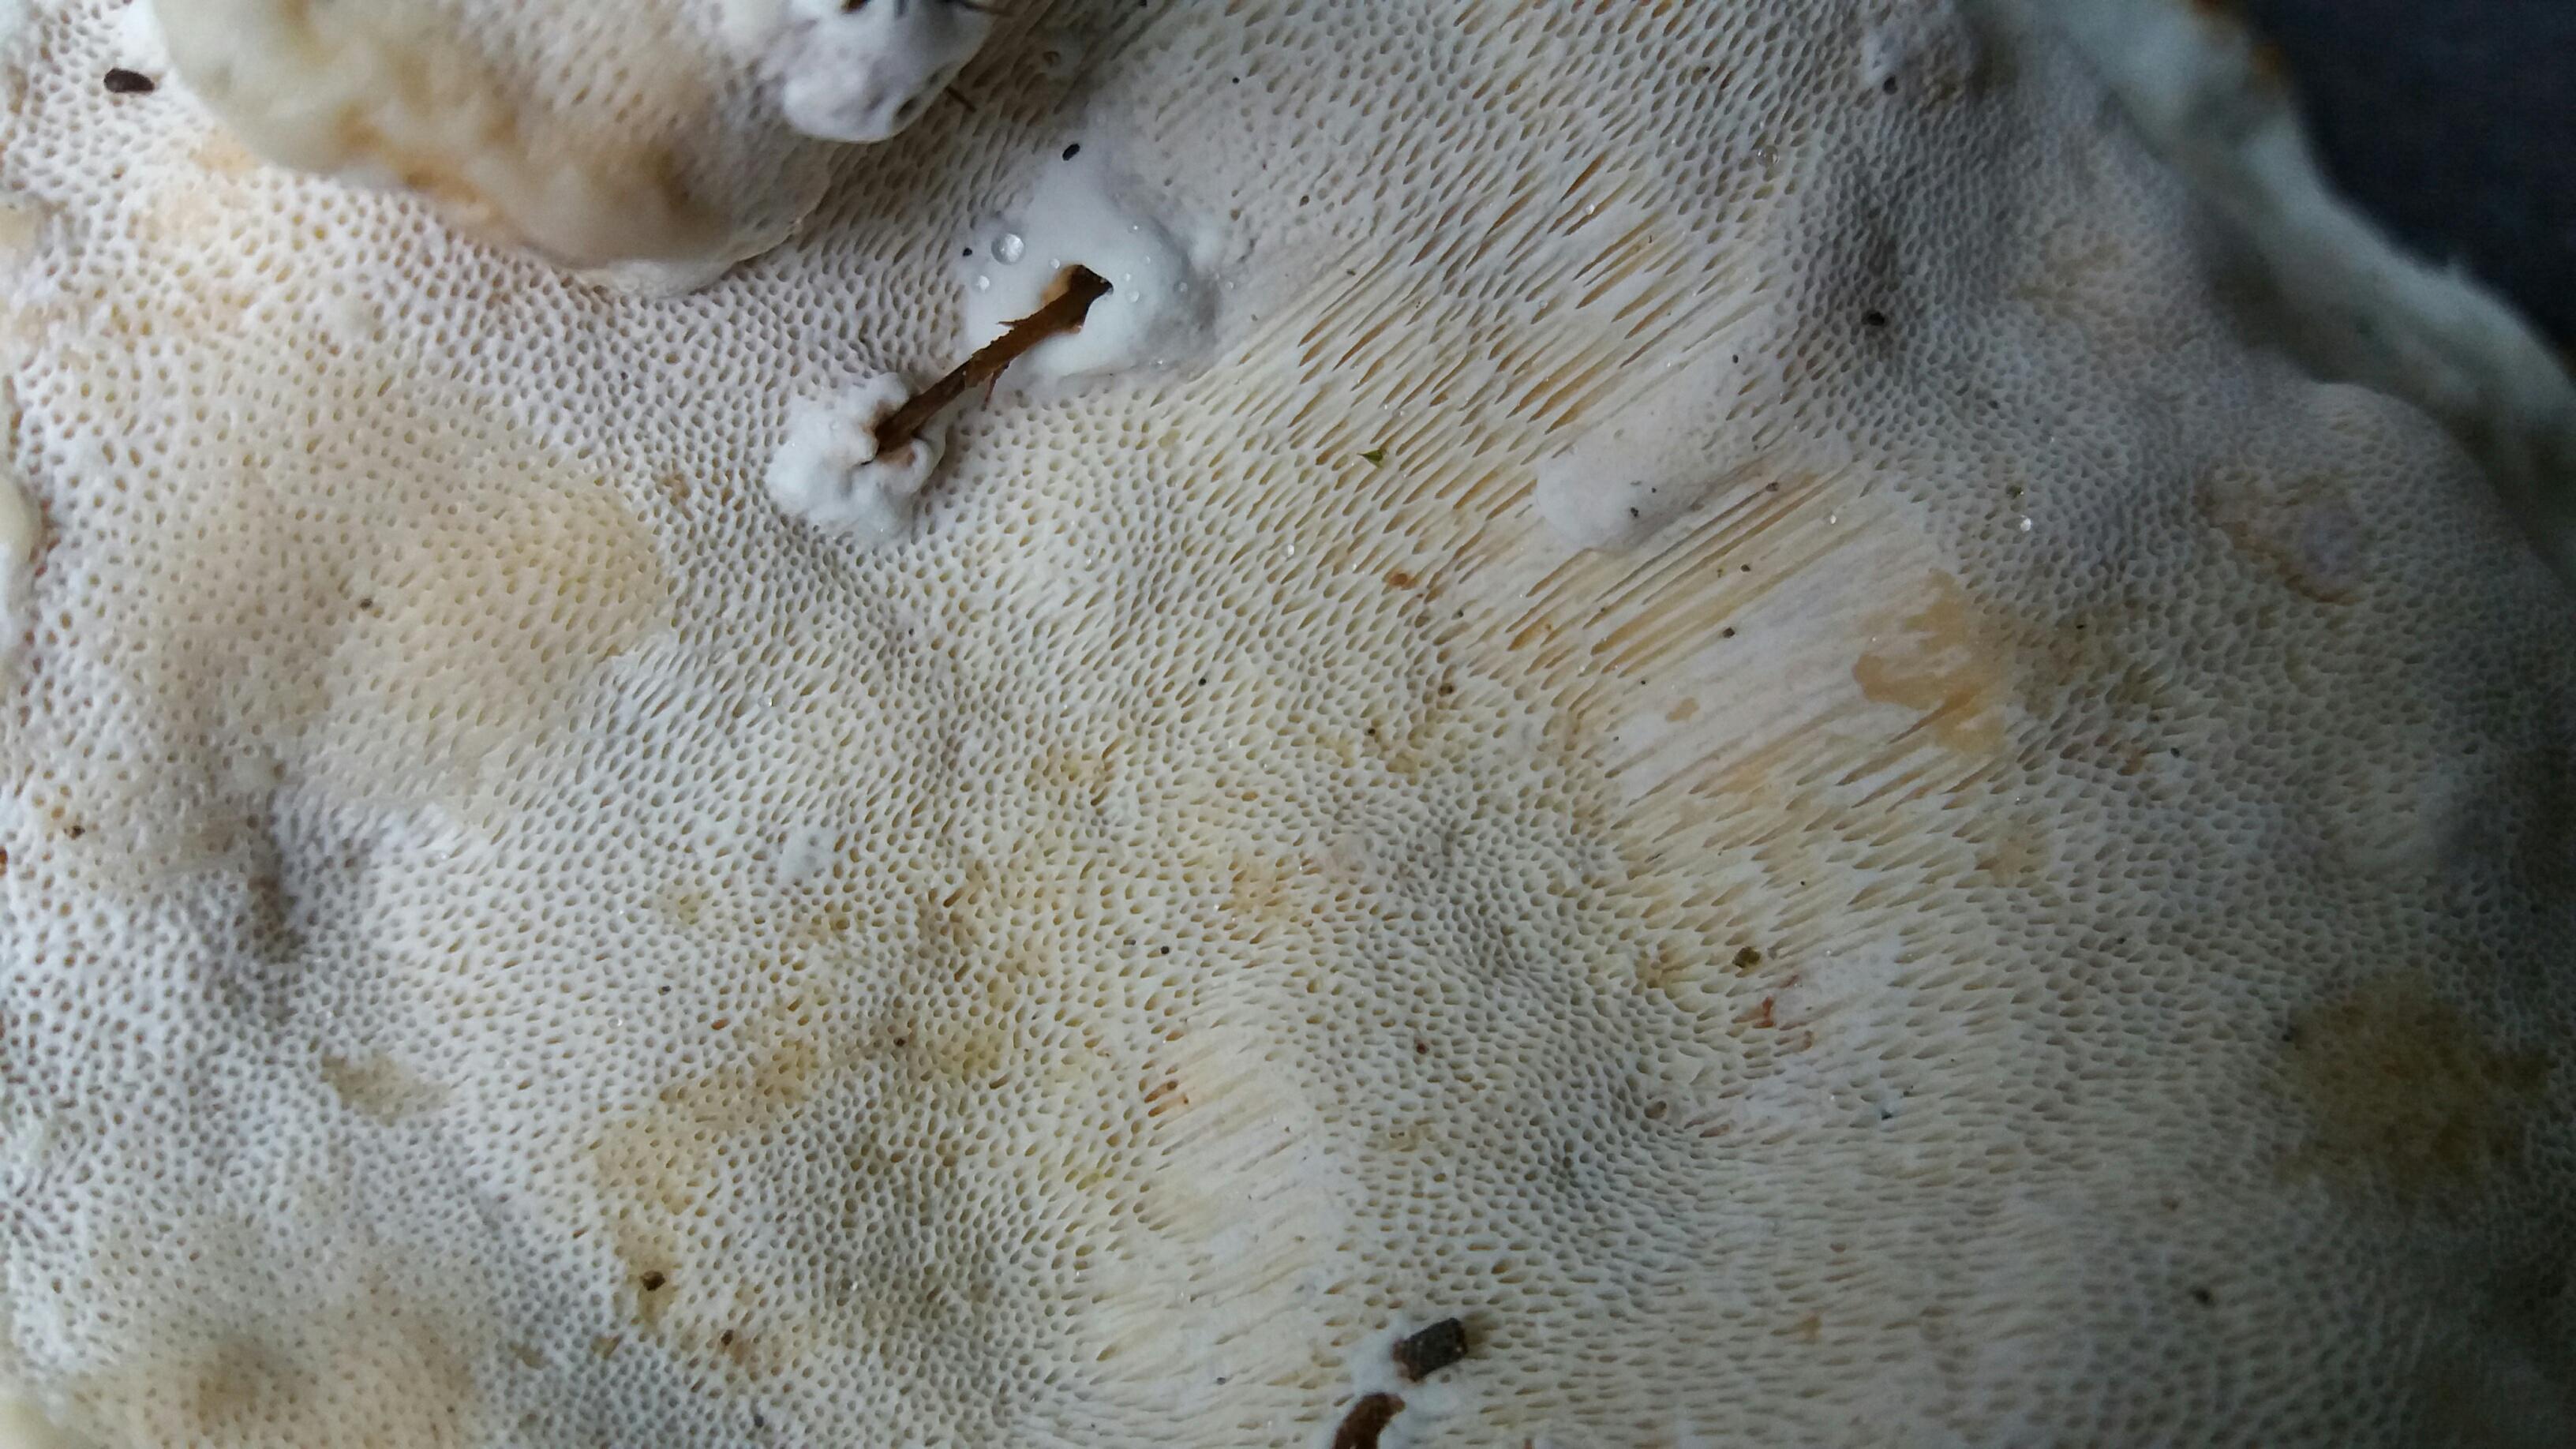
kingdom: Fungi
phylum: Basidiomycota
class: Agaricomycetes
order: Russulales
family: Bondarzewiaceae
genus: Heterobasidion
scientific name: Heterobasidion annosum
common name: almindelig rodfordærver
